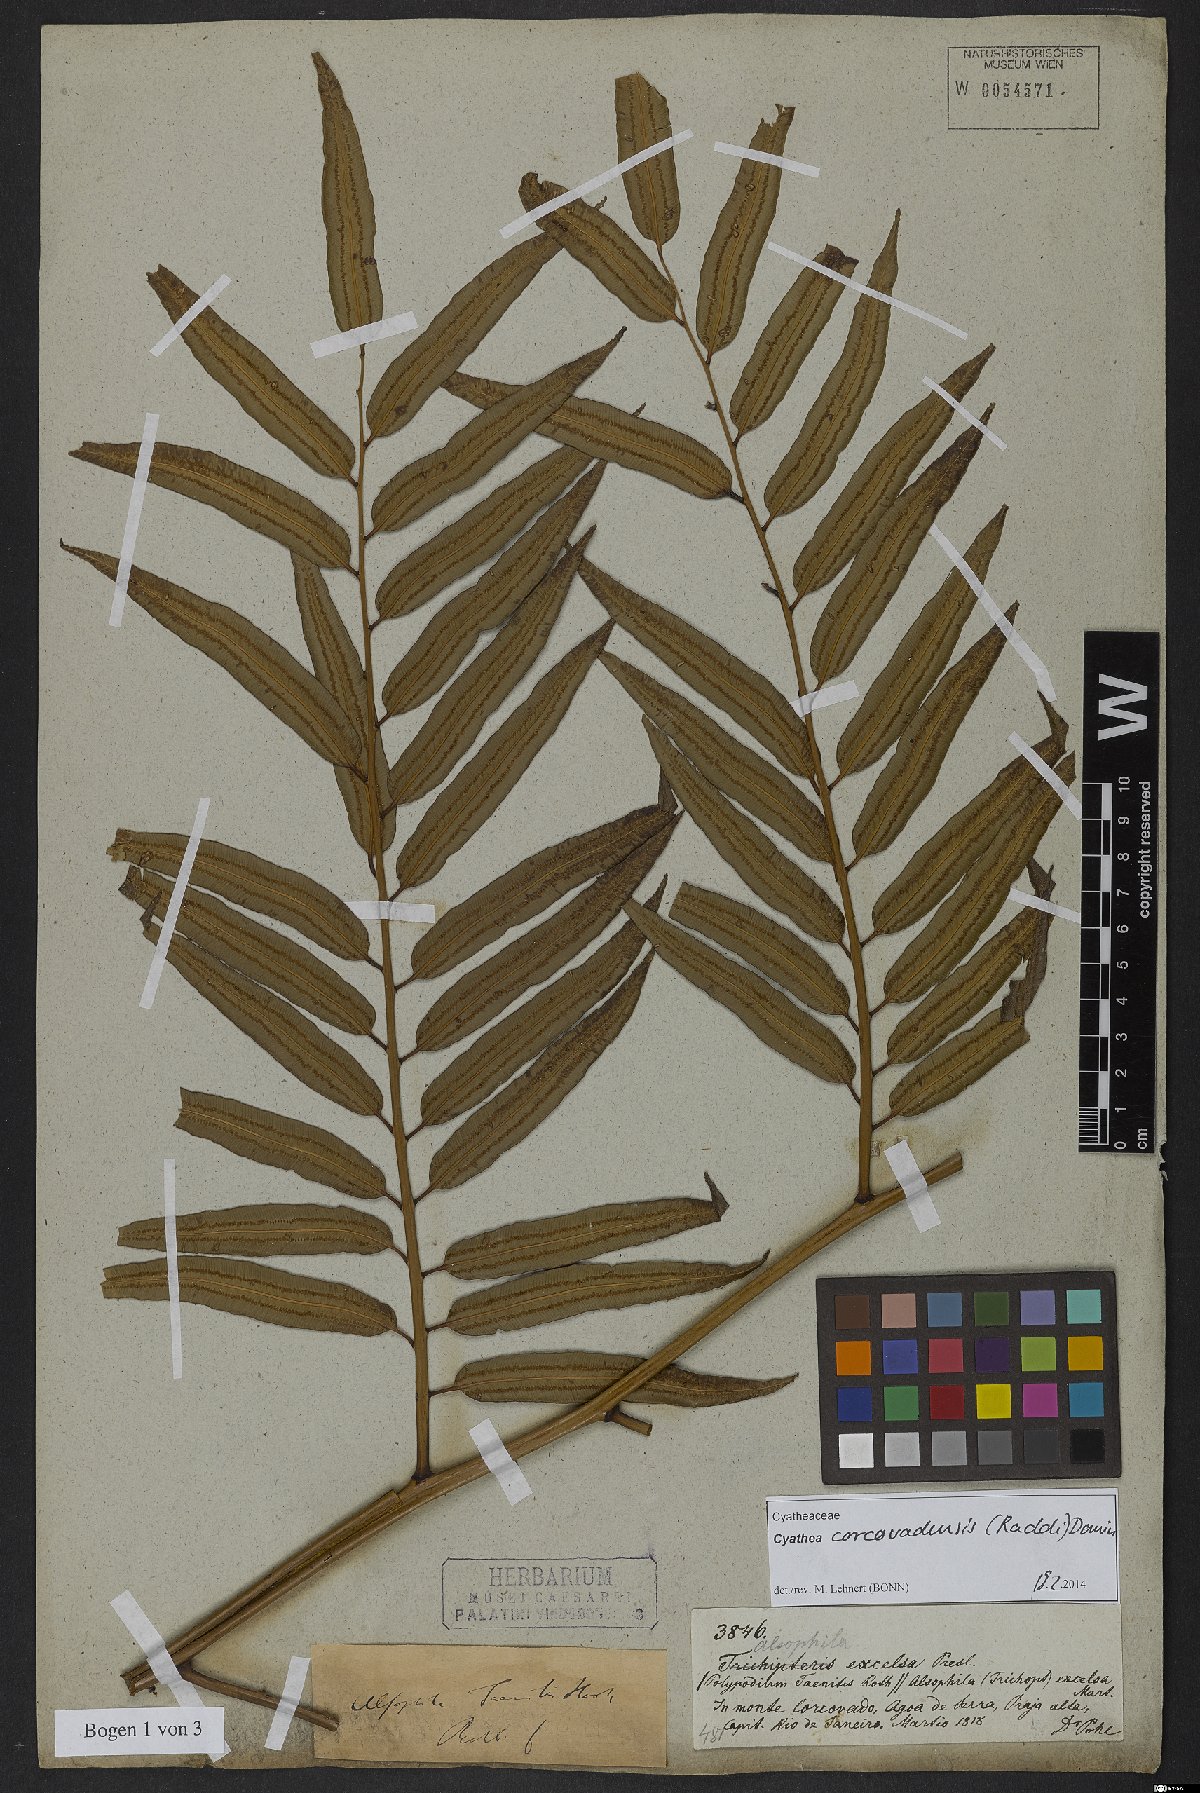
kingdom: Plantae
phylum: Tracheophyta
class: Polypodiopsida
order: Cyatheales
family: Cyatheaceae
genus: Cyathea
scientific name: Cyathea corcovadensis
